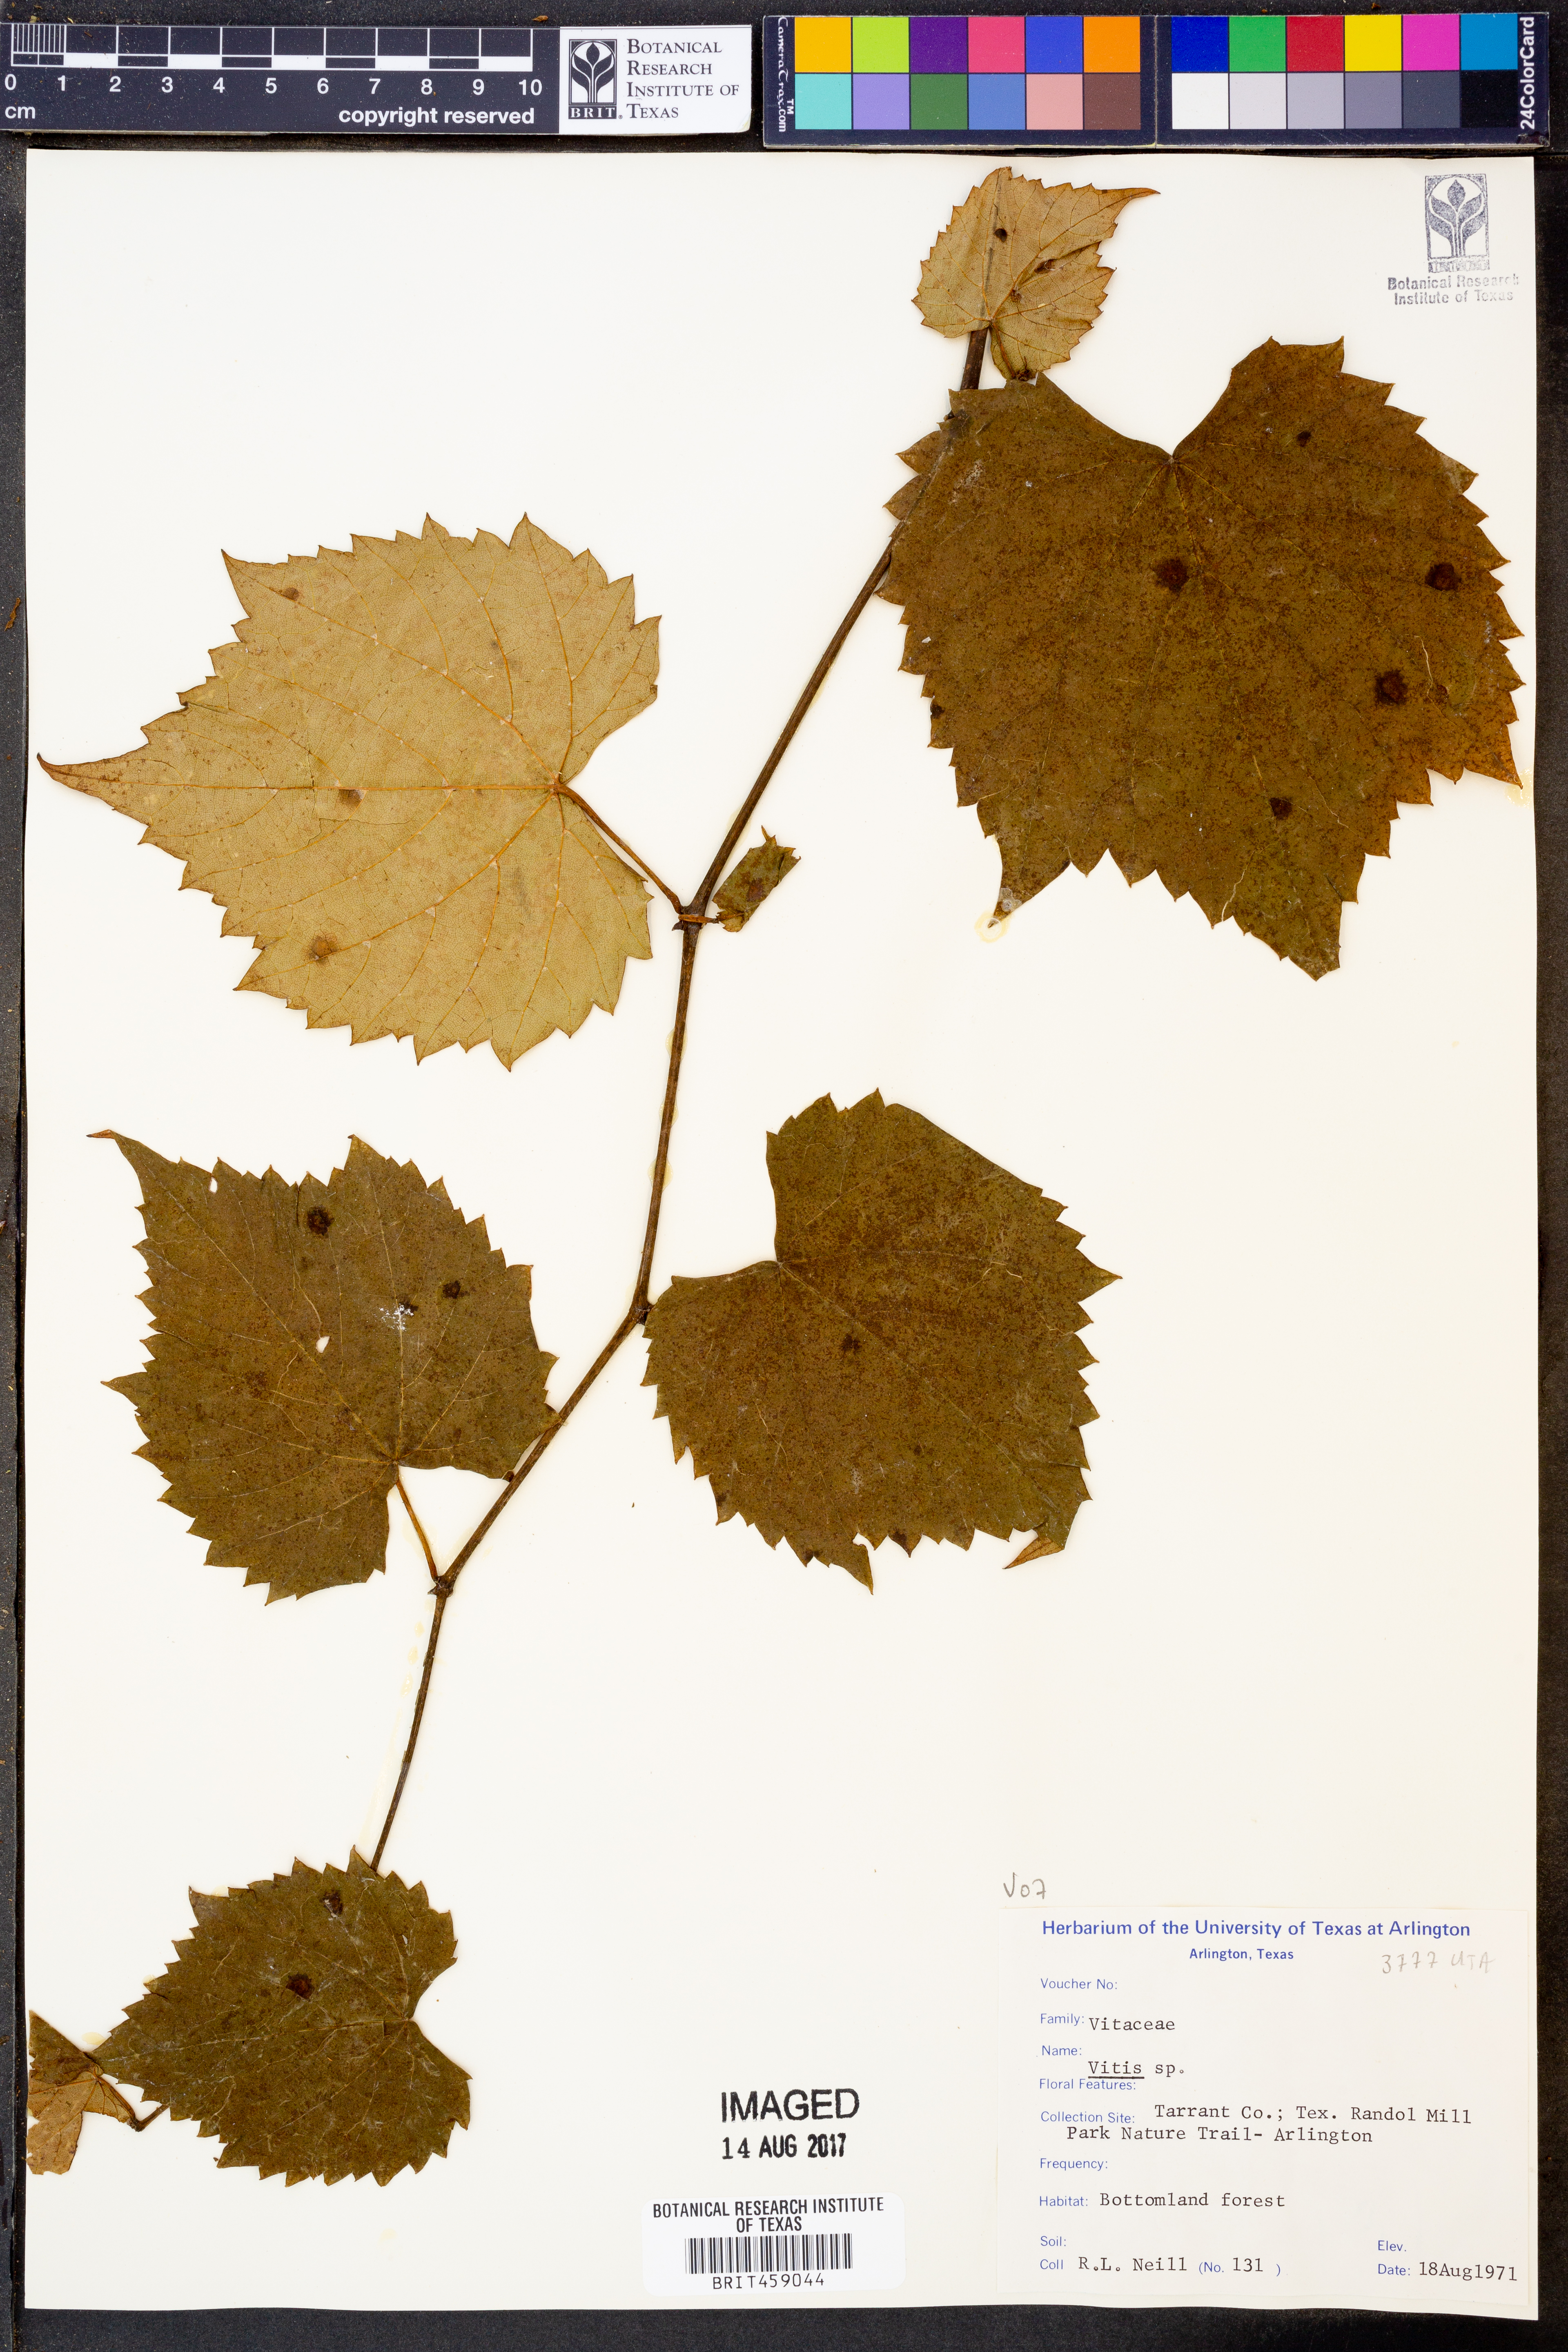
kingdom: Plantae
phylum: Tracheophyta
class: Magnoliopsida
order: Vitales
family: Vitaceae
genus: Vitis
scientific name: Vitis
